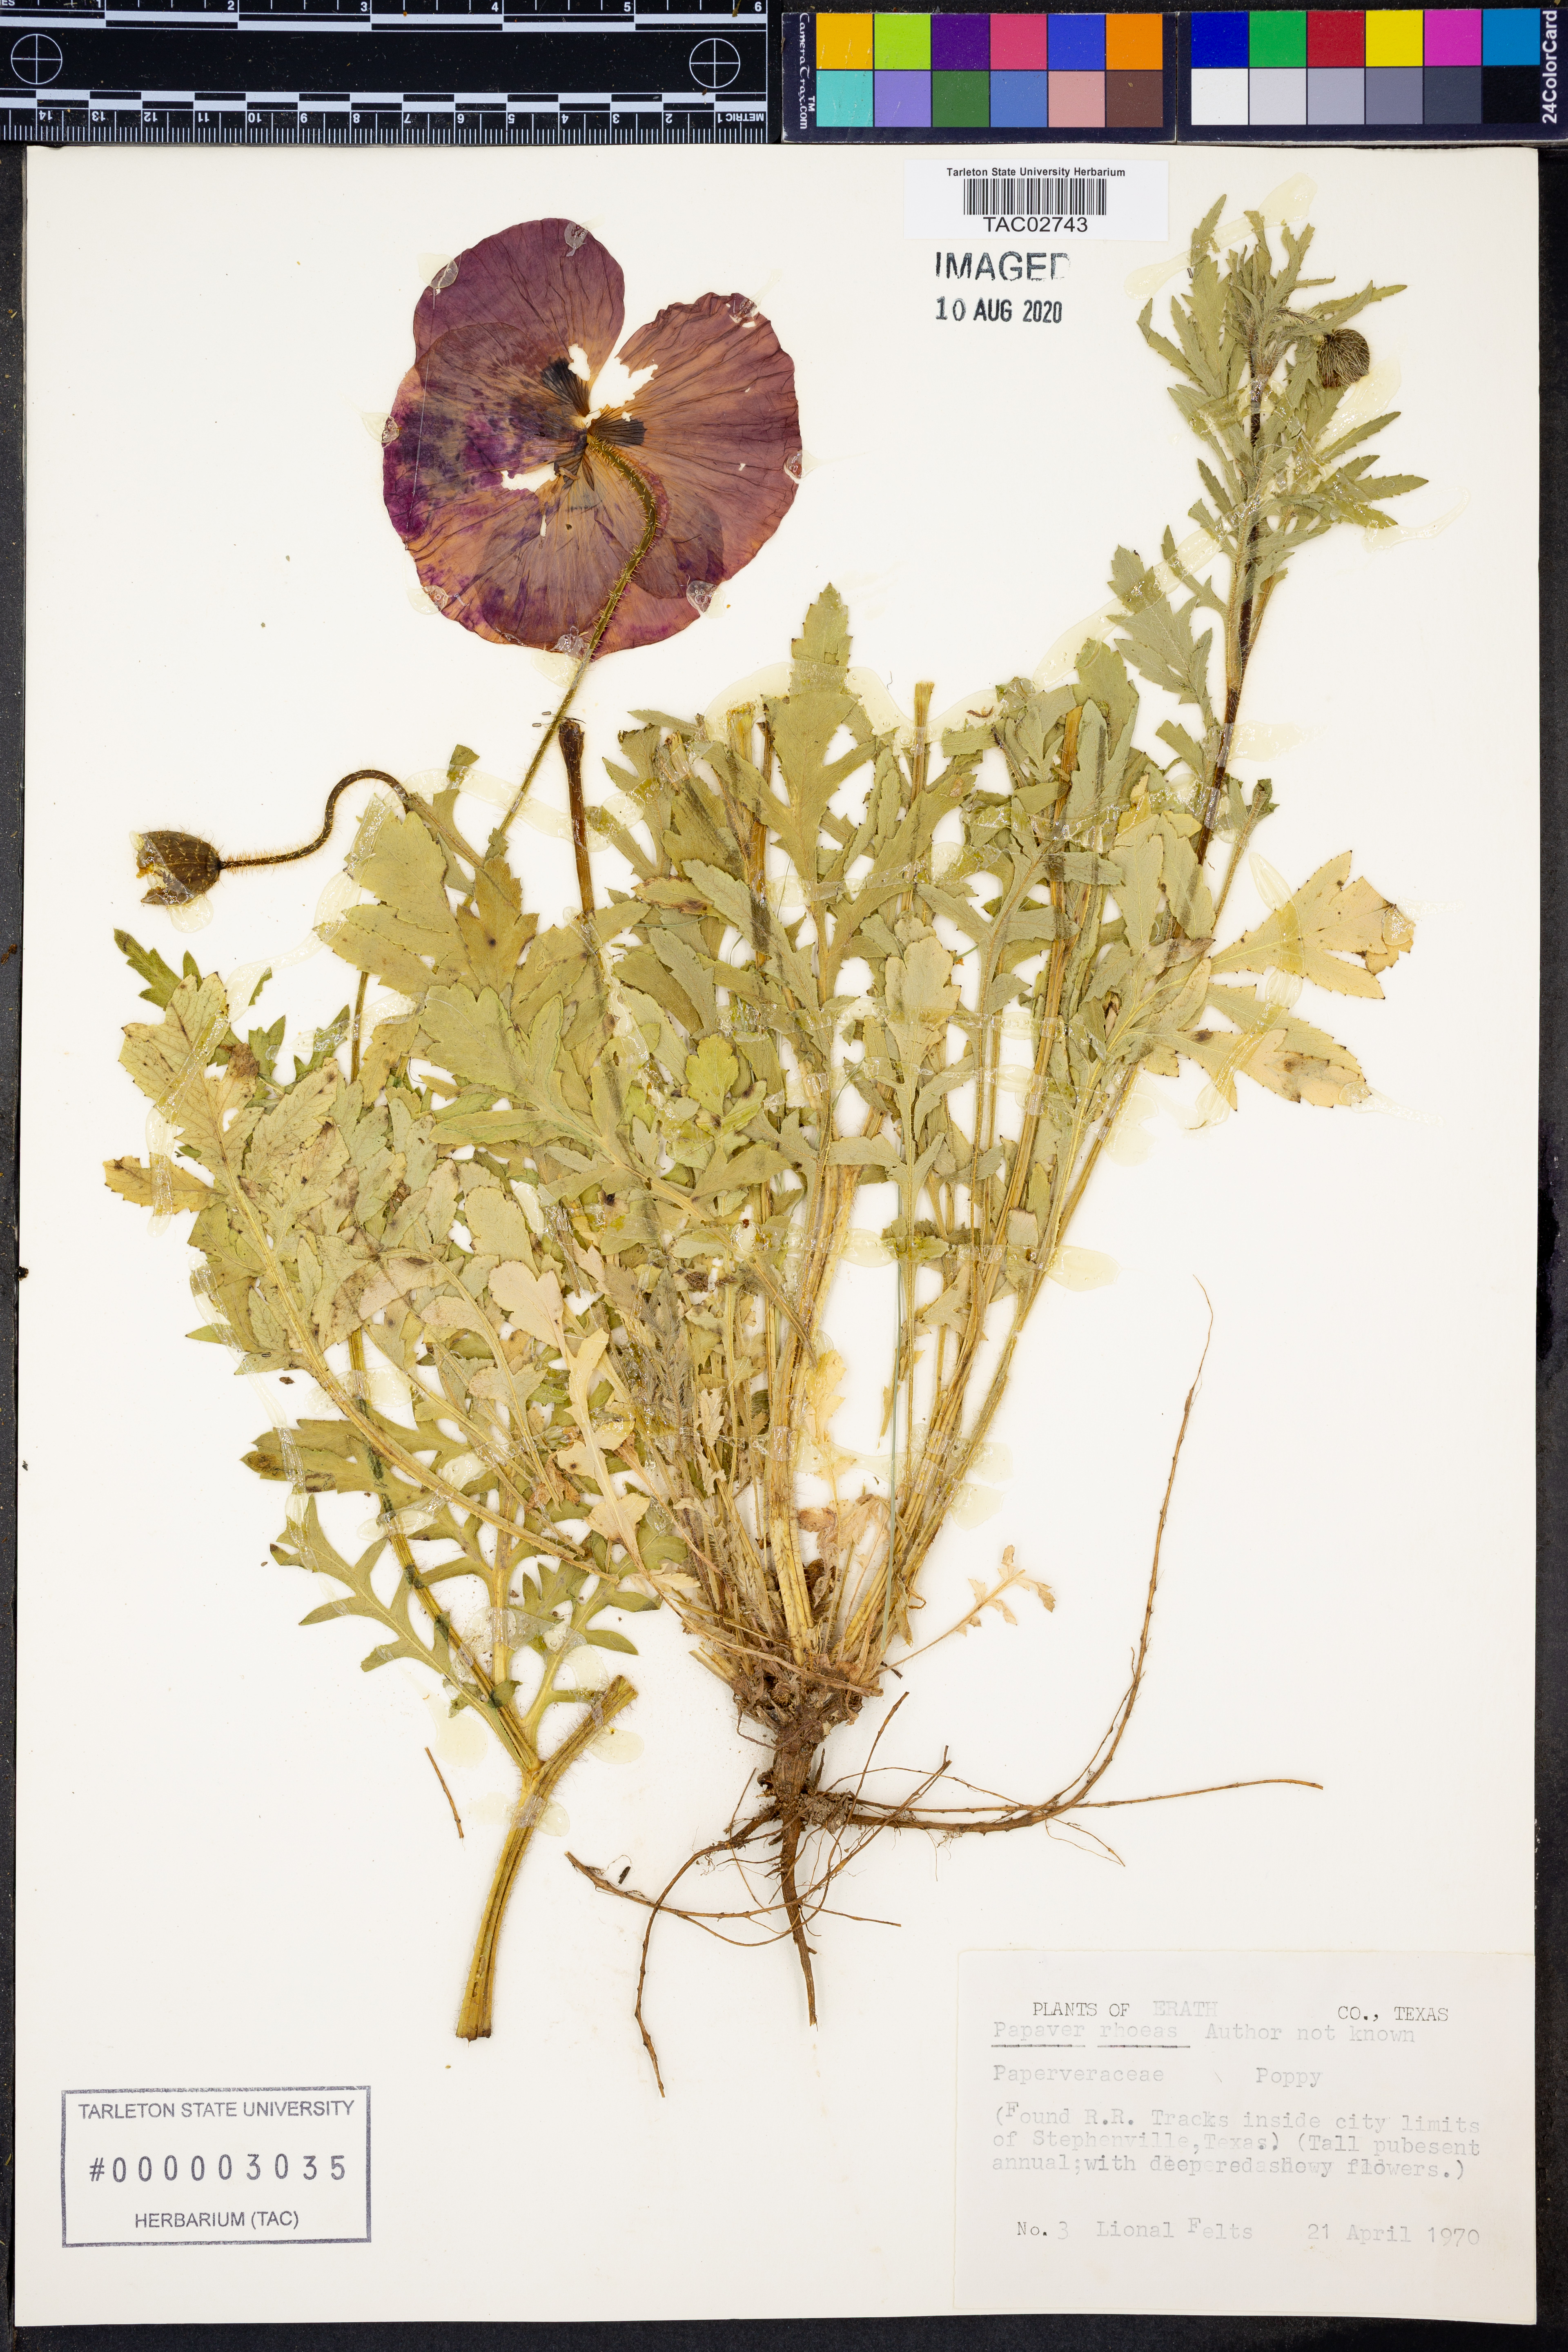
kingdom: Plantae
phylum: Tracheophyta
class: Magnoliopsida
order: Ranunculales
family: Papaveraceae
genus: Papaver
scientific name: Papaver rhoeas
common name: Corn poppy
